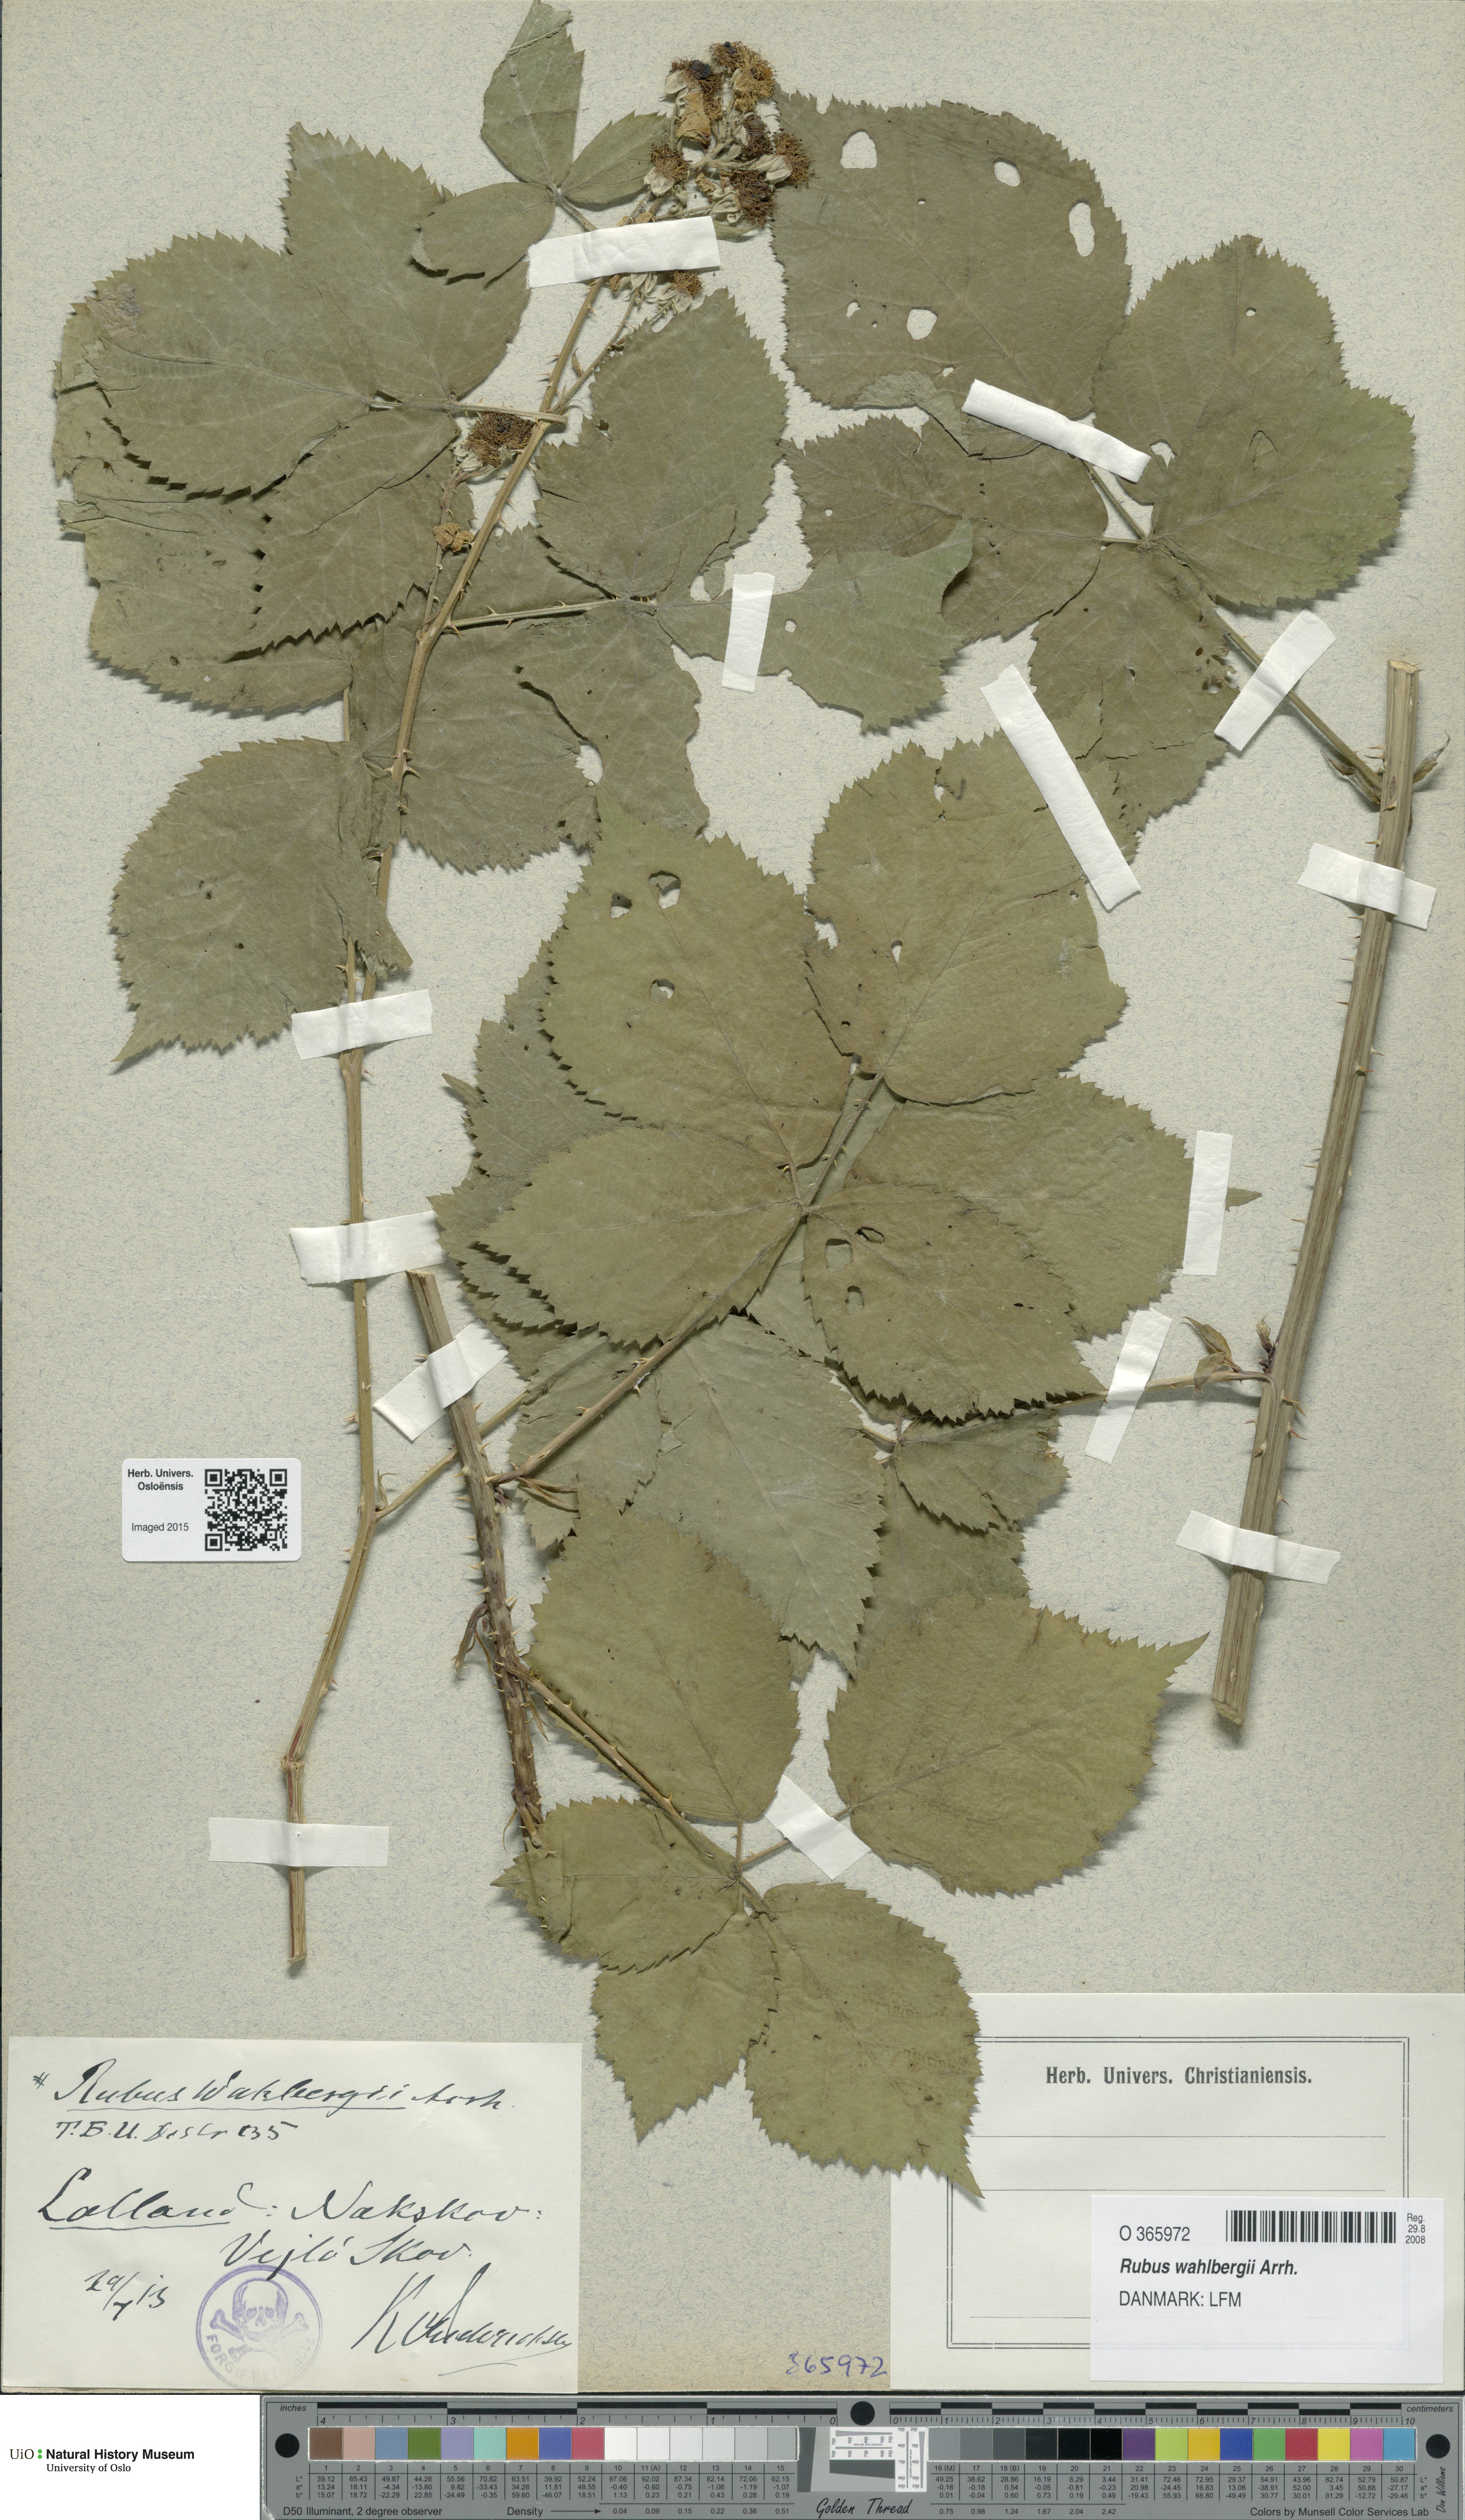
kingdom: Plantae
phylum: Tracheophyta
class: Magnoliopsida
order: Rosales
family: Rosaceae
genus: Rubus
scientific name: Rubus wahlbergii
